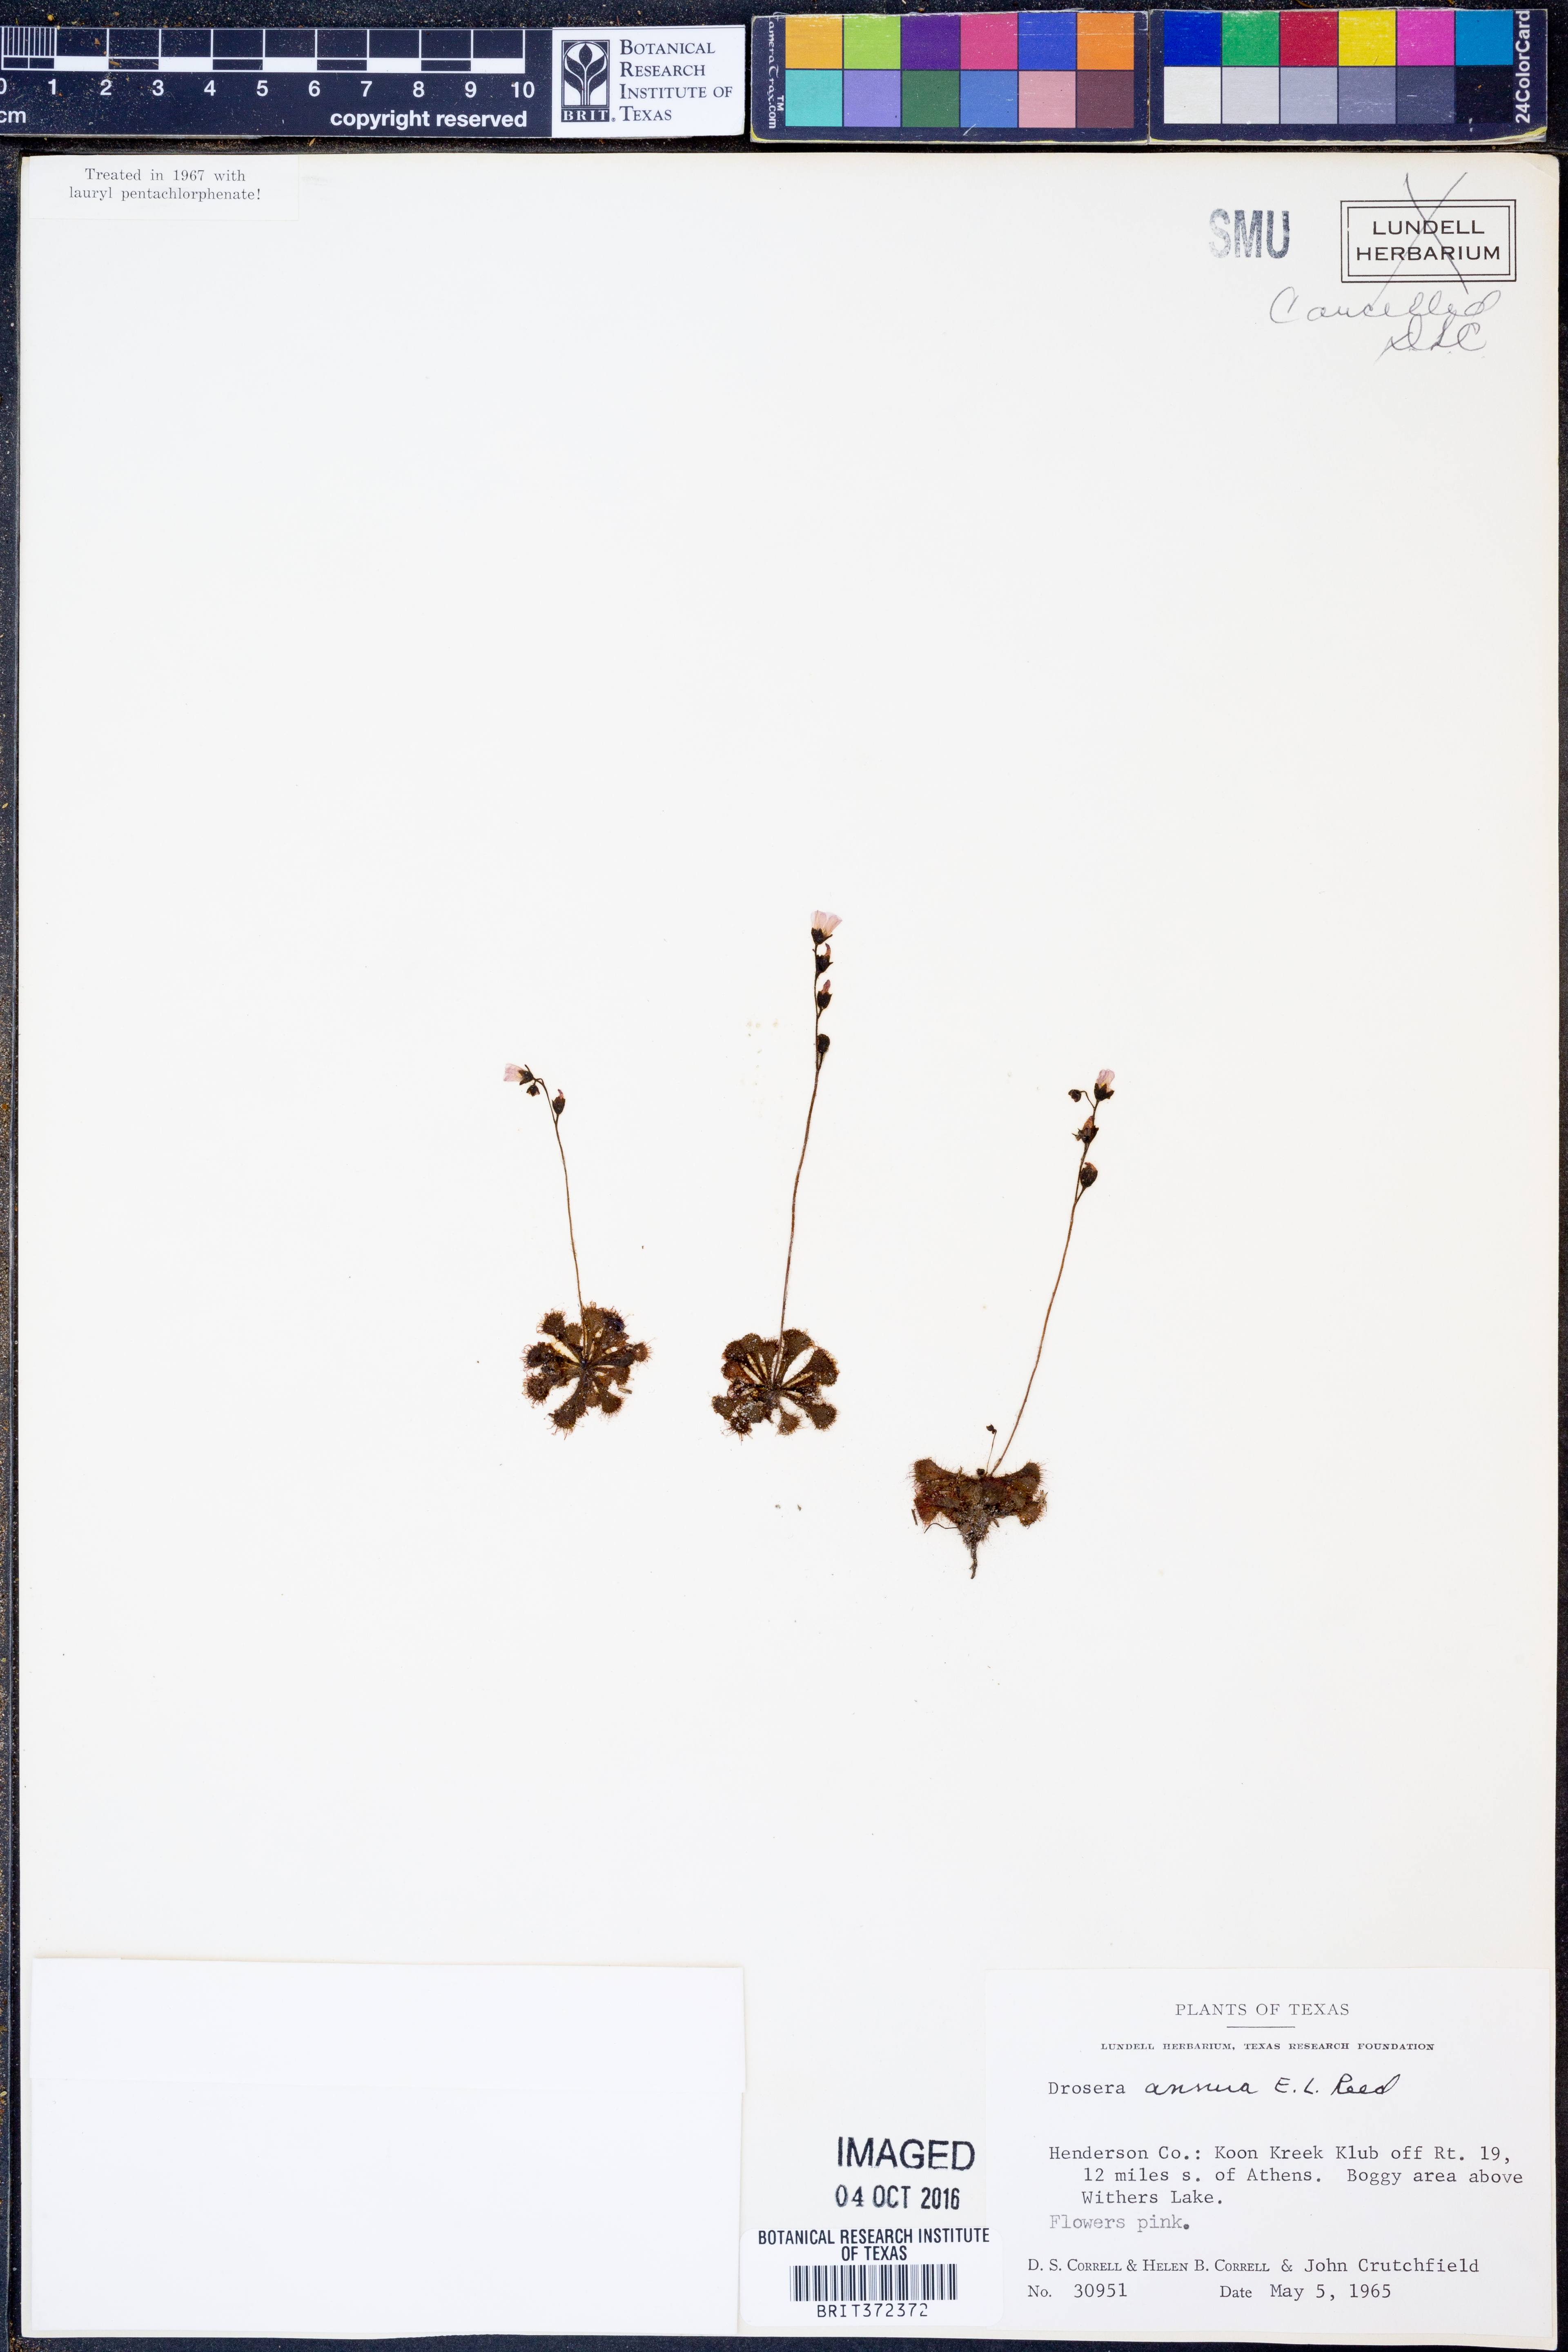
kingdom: Plantae
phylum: Tracheophyta
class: Magnoliopsida
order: Caryophyllales
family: Droseraceae
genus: Drosera
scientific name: Drosera brevifolia
